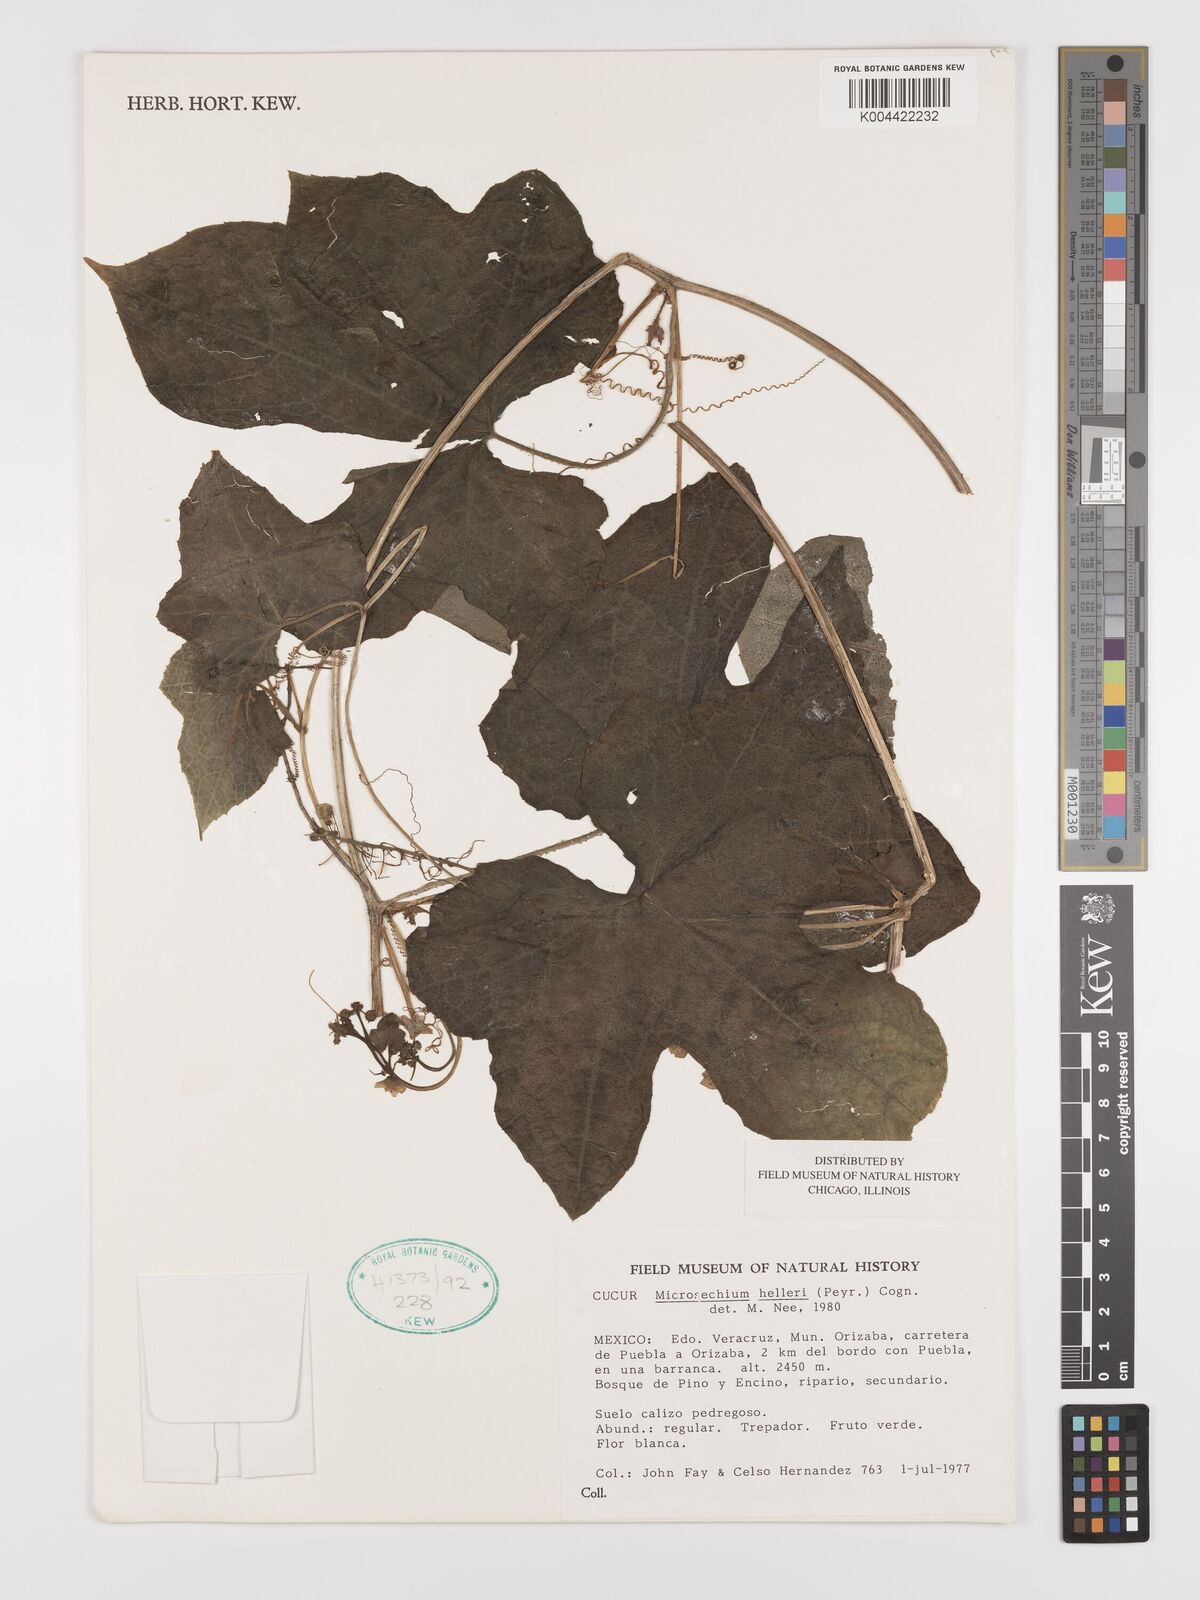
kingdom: Plantae
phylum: Tracheophyta
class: Magnoliopsida
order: Cucurbitales
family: Cucurbitaceae
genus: Microsechium
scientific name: Microsechium palmatum
